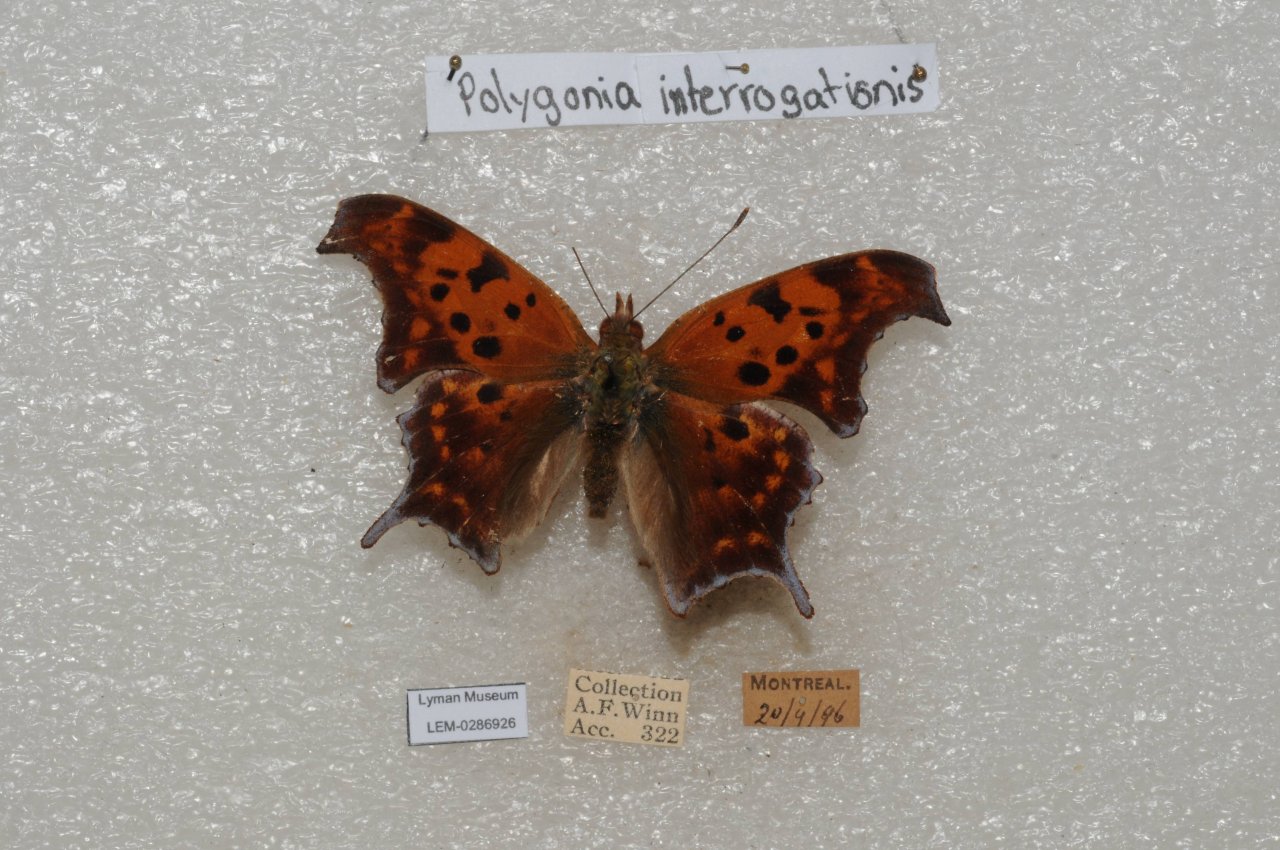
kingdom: Animalia
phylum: Arthropoda
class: Insecta
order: Lepidoptera
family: Nymphalidae
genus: Polygonia
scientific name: Polygonia interrogationis
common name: Question Mark
